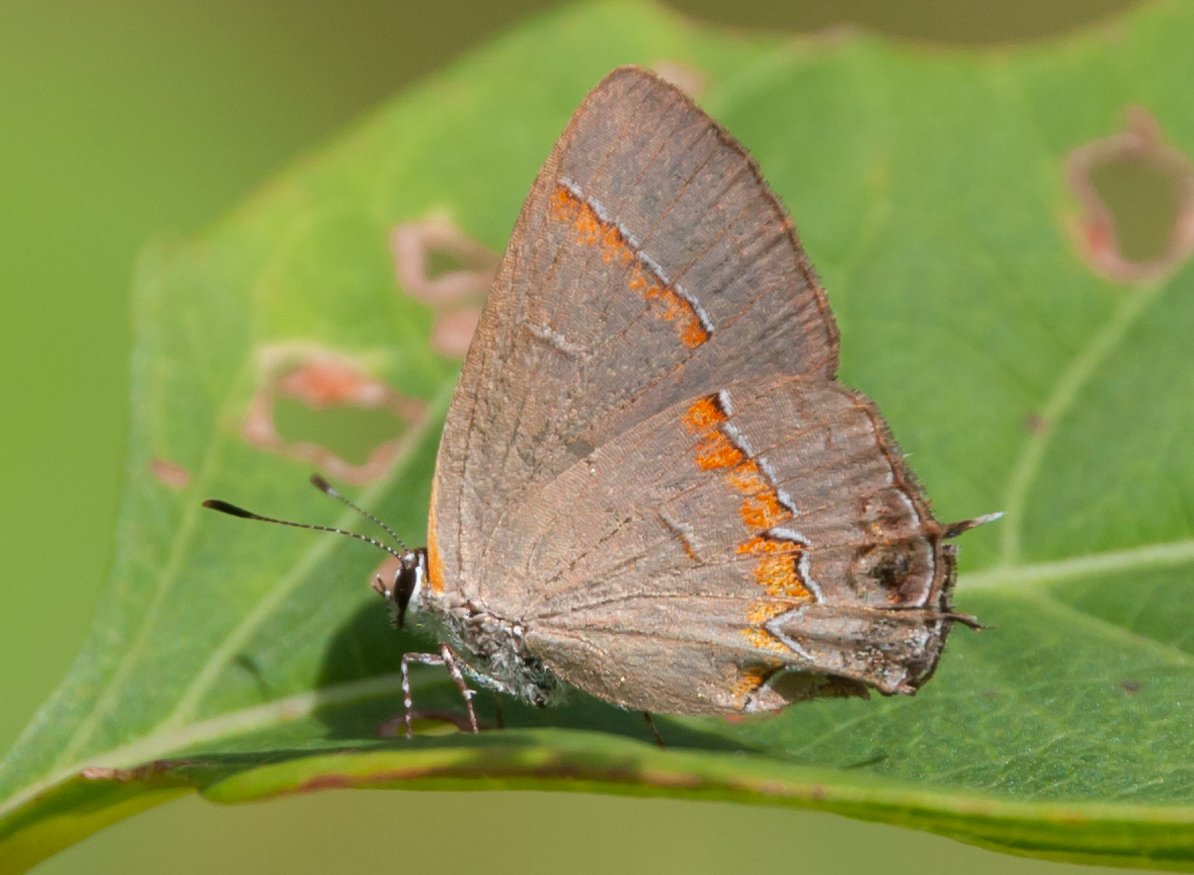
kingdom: Animalia
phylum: Arthropoda
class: Insecta
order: Lepidoptera
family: Lycaenidae
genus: Calycopis
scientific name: Calycopis cecrops
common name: Red-banded Hairstreak
